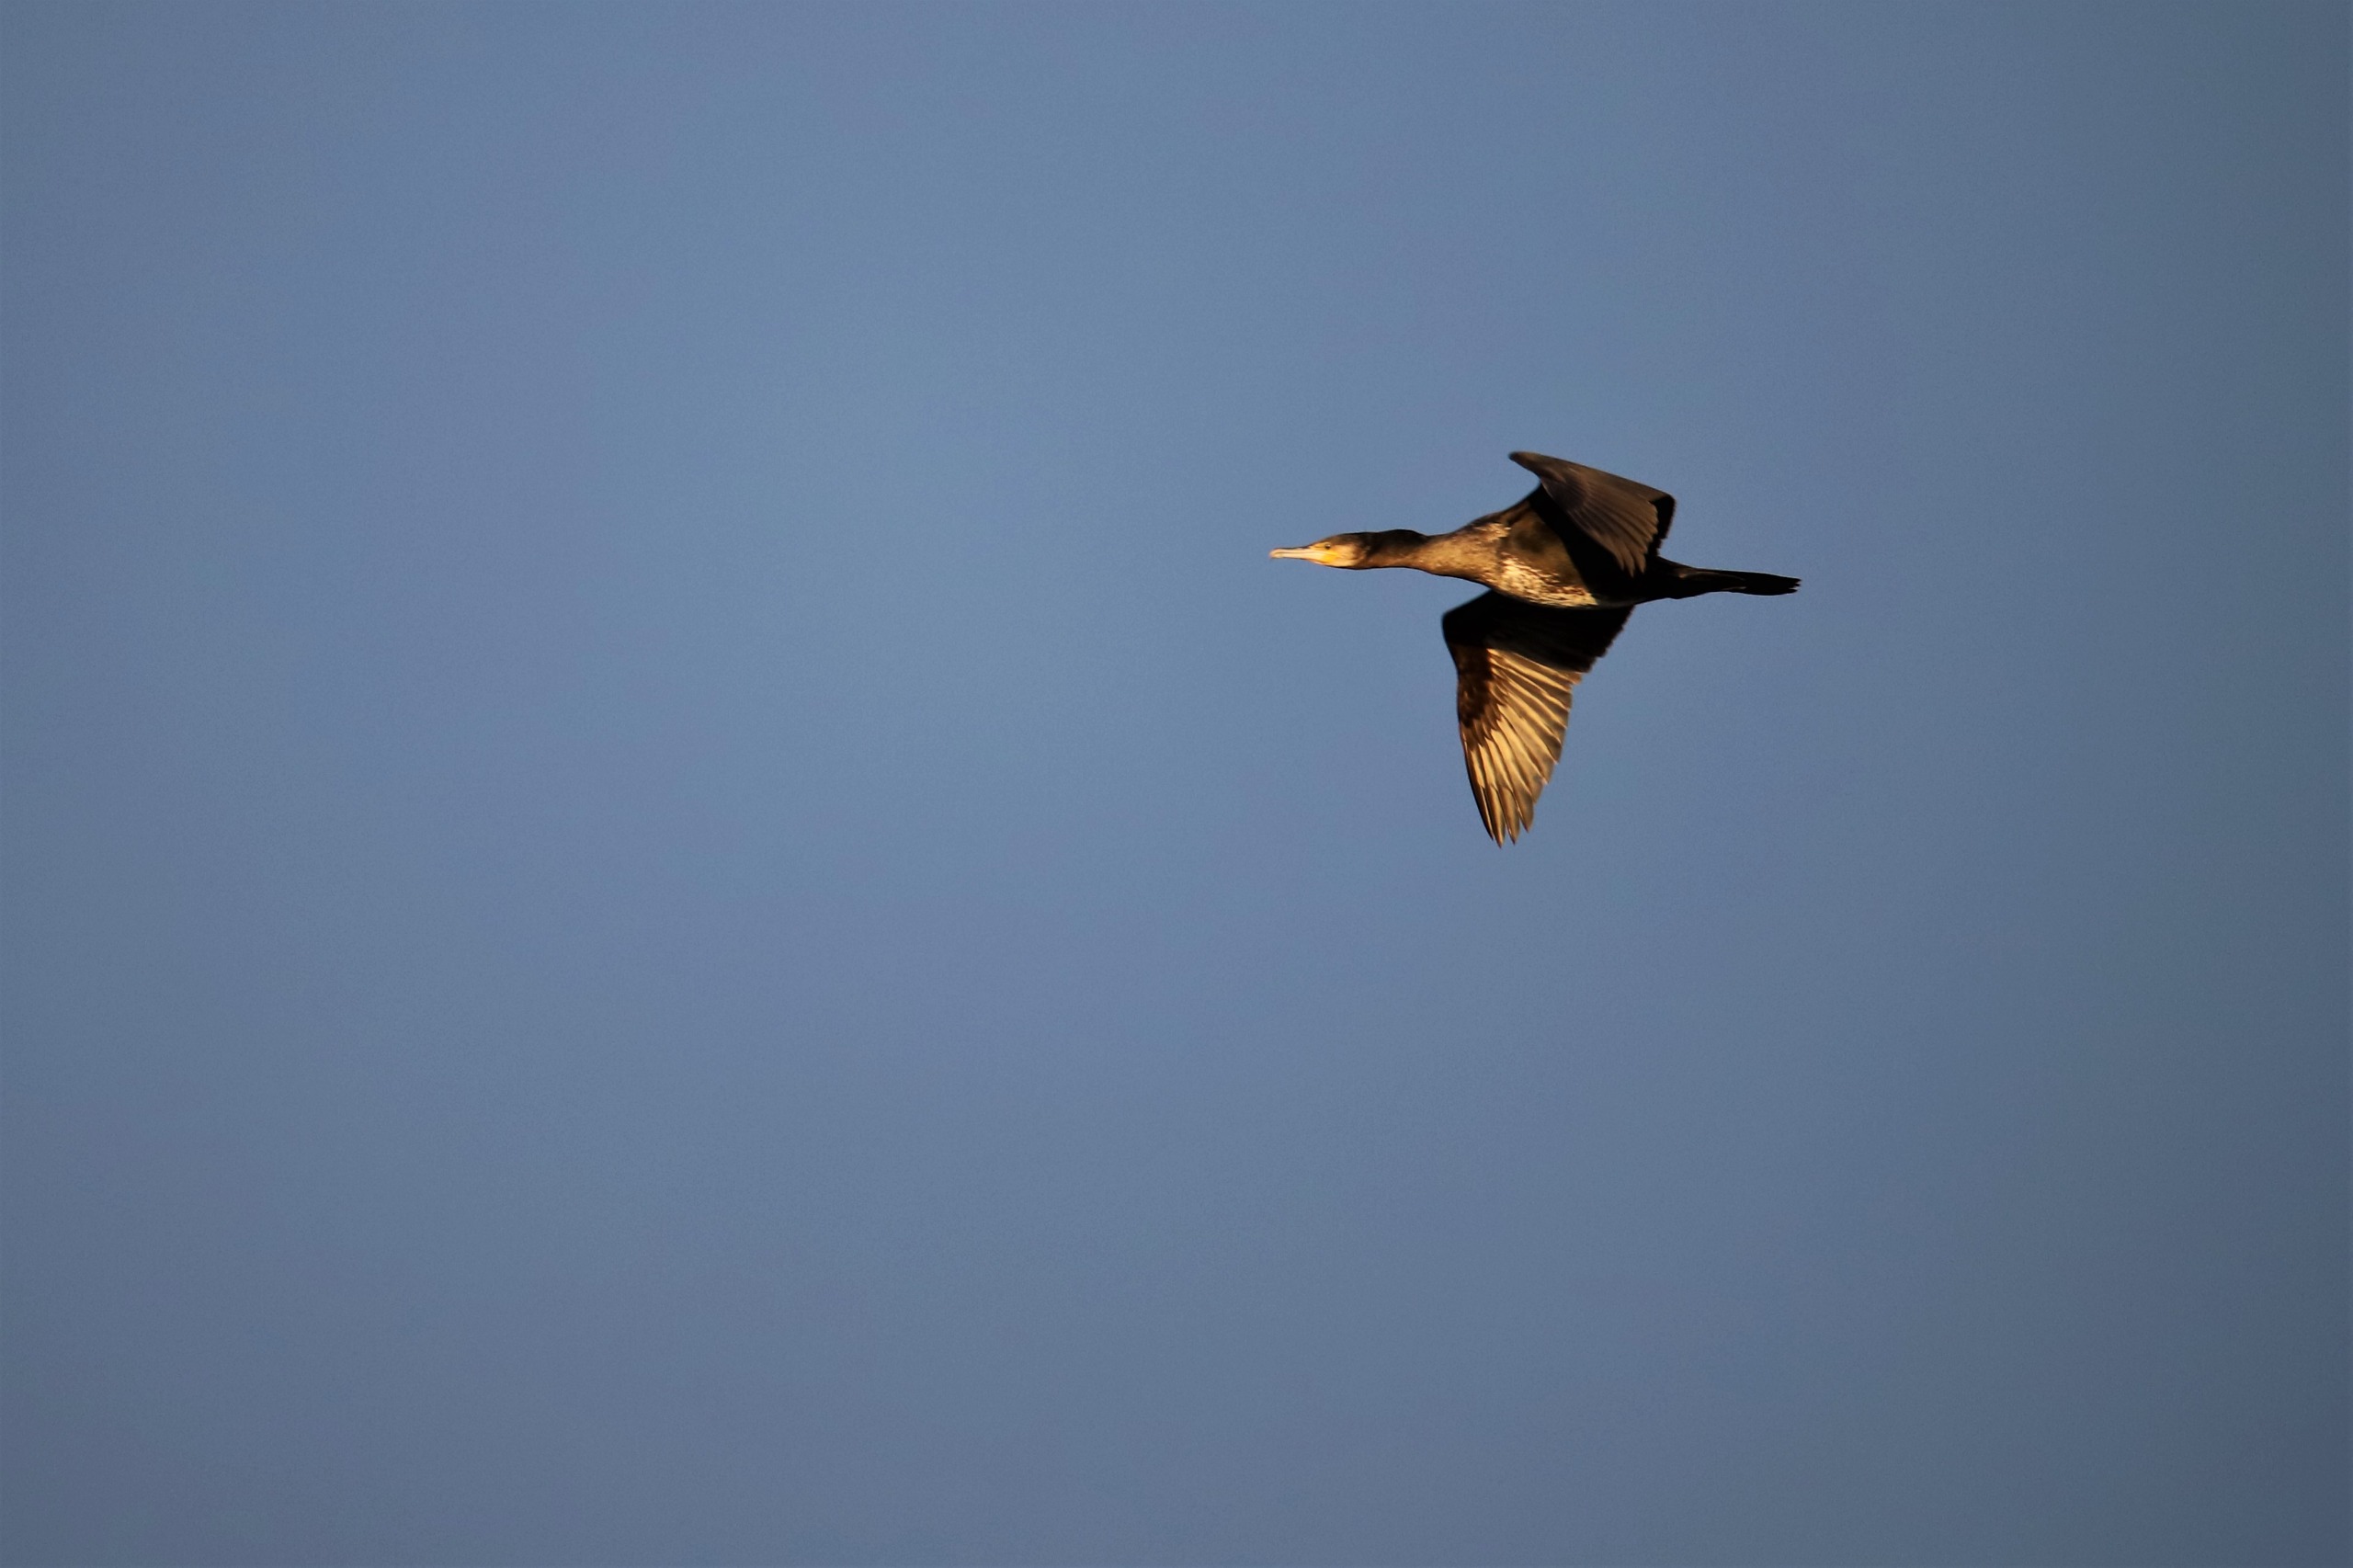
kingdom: Animalia
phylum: Chordata
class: Aves
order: Suliformes
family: Phalacrocoracidae
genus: Phalacrocorax
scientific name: Phalacrocorax carbo
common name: Skarv
